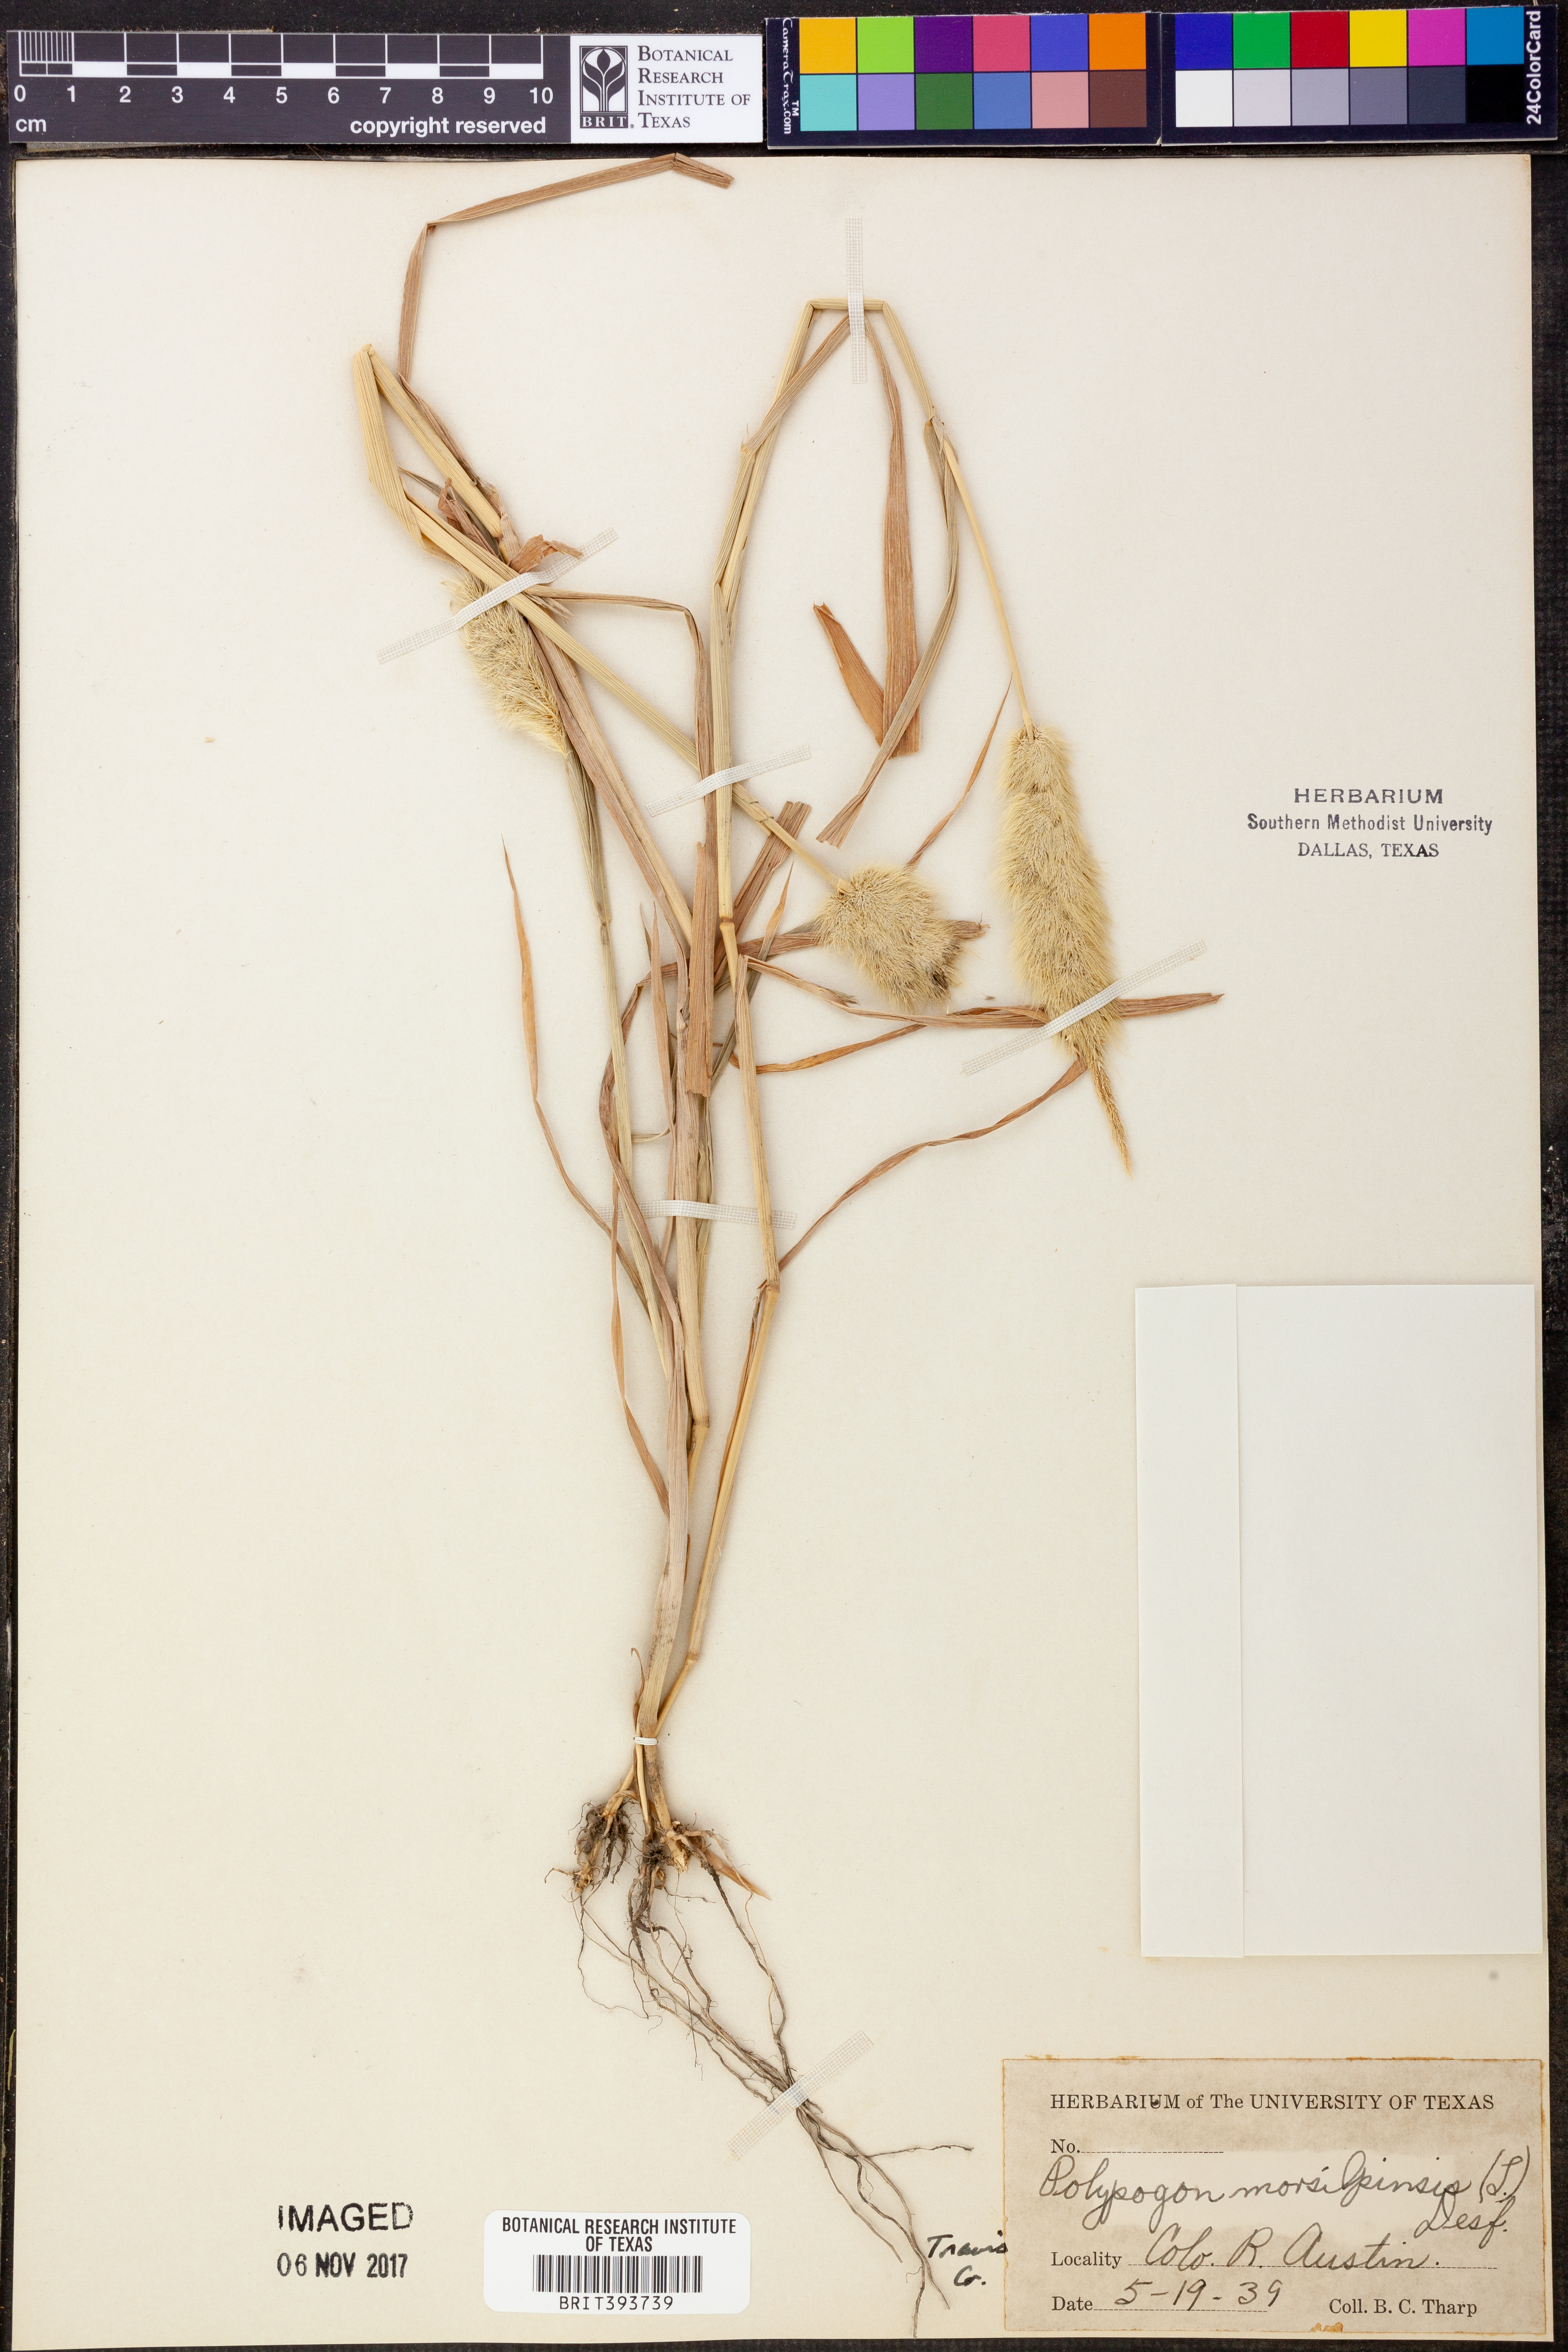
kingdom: Plantae
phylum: Tracheophyta
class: Liliopsida
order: Poales
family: Poaceae
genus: Polypogon
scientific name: Polypogon monspeliensis
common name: Annual rabbitsfoot grass
